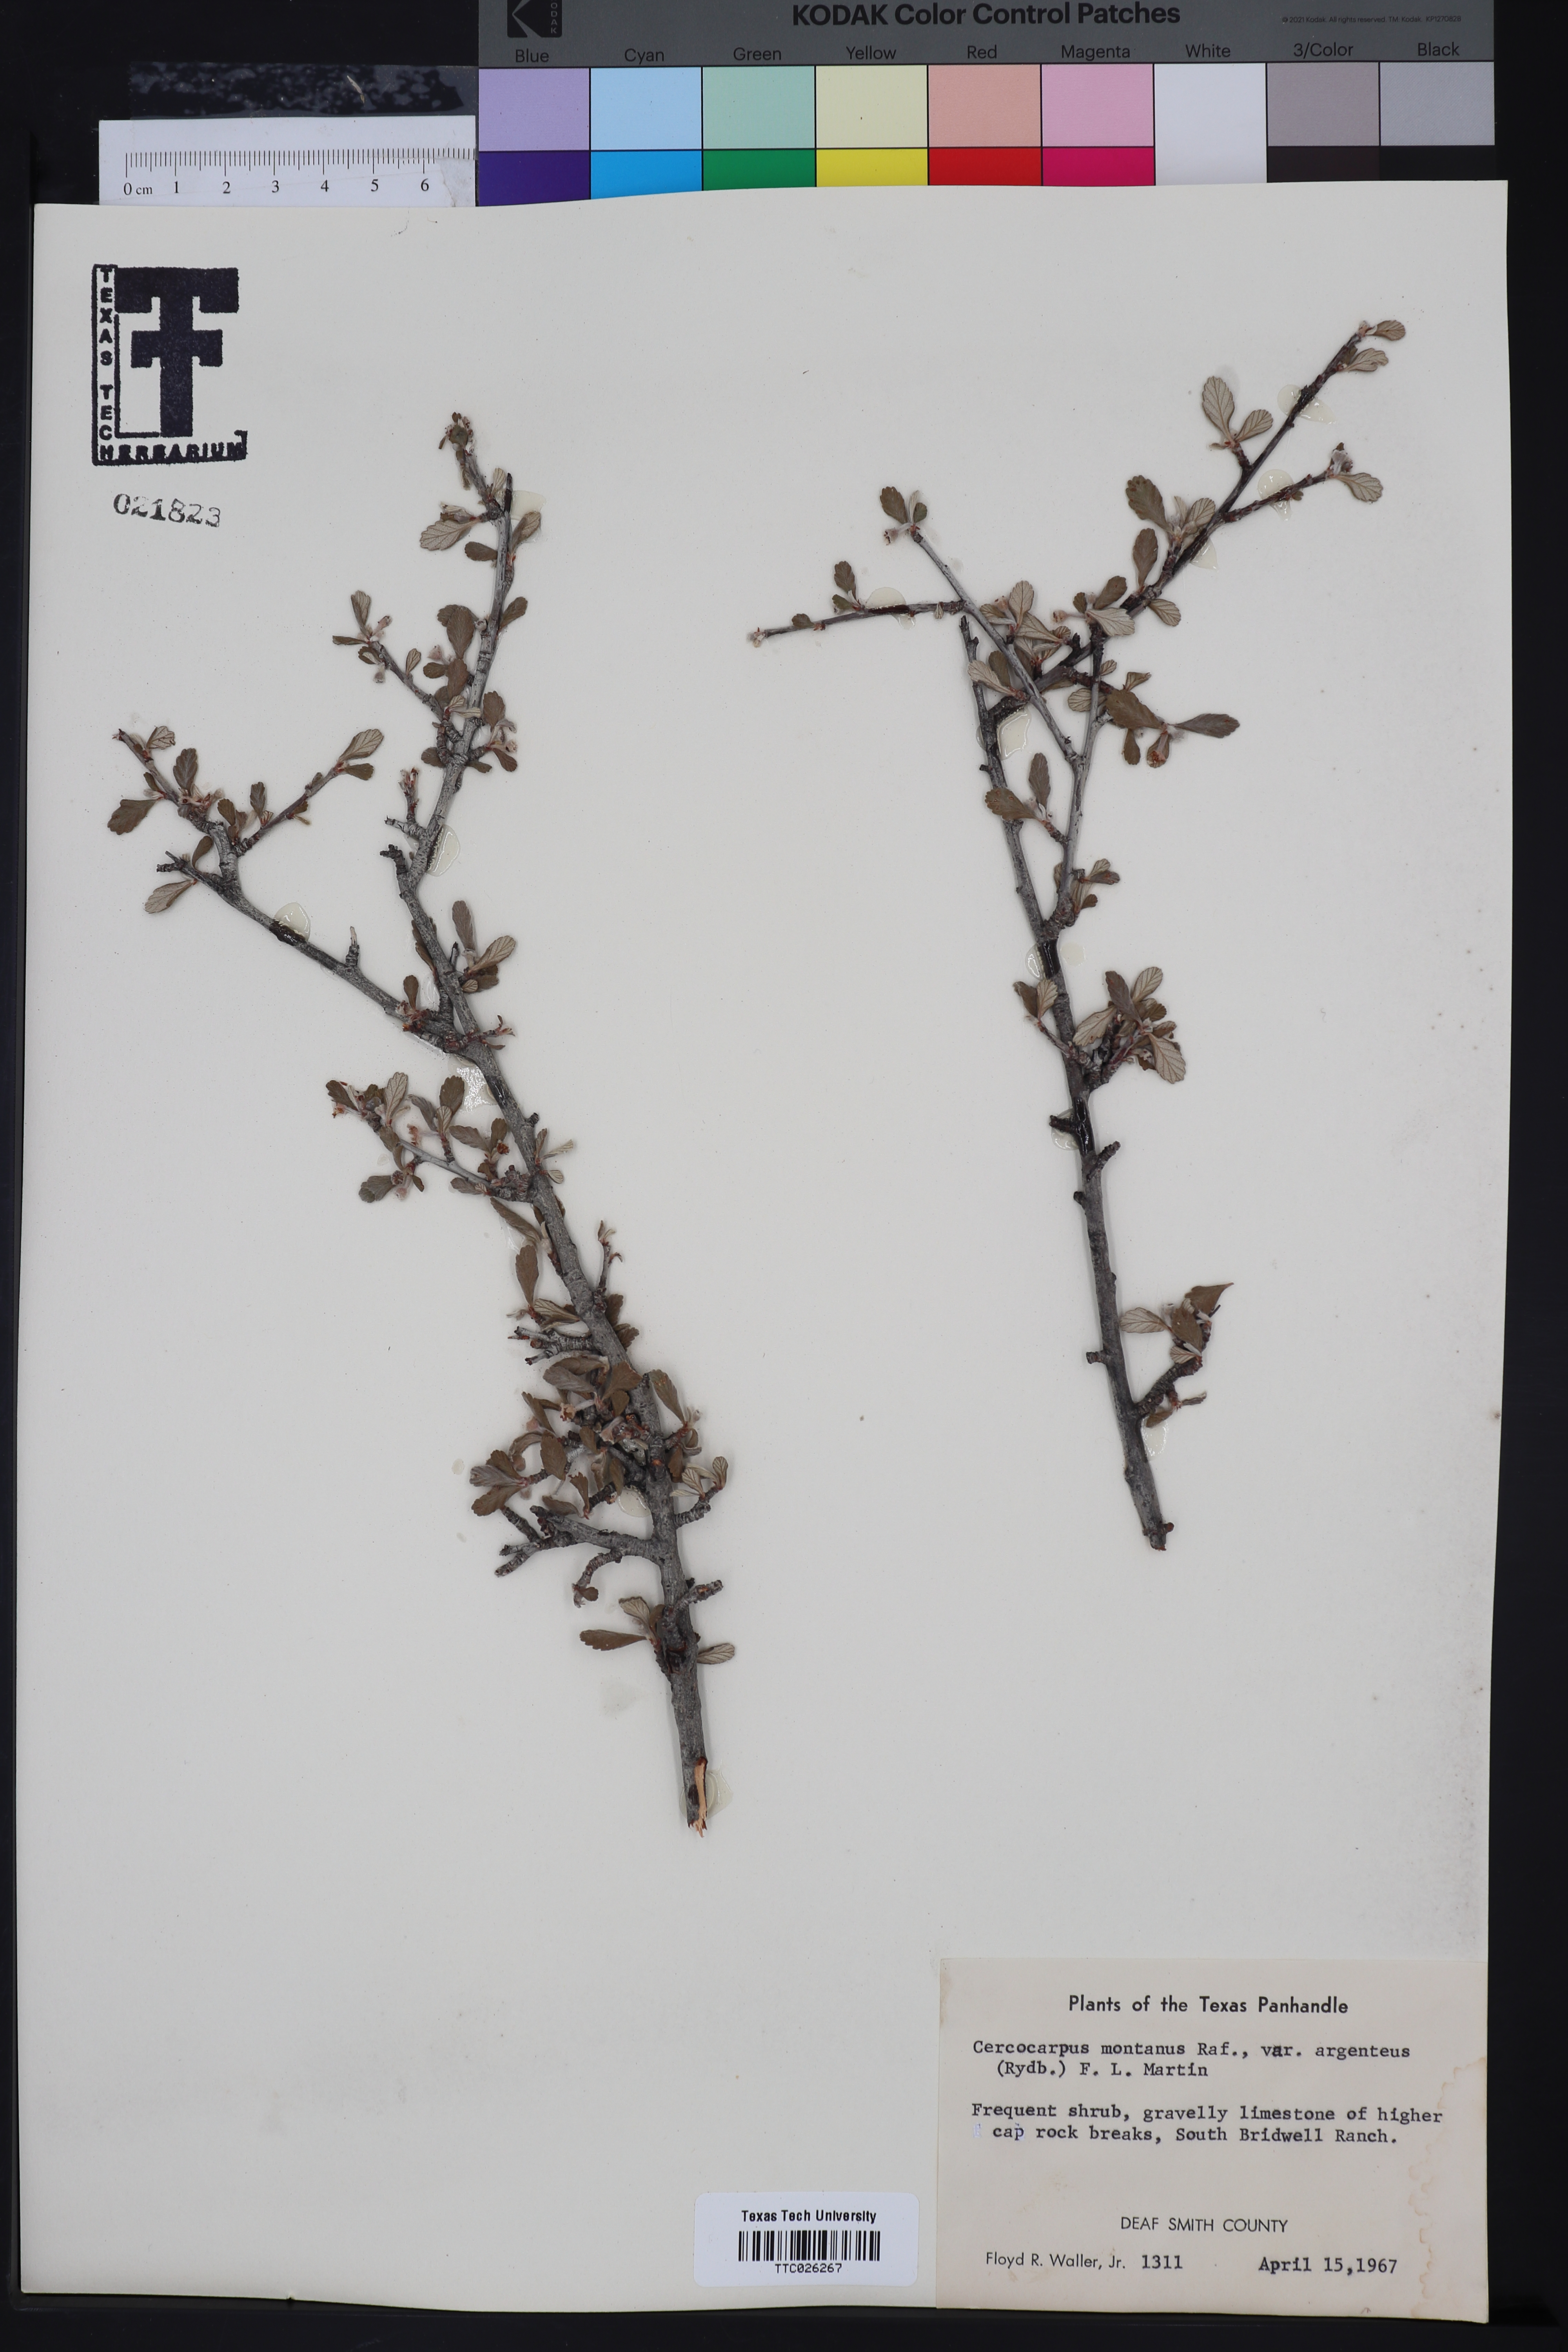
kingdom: Plantae
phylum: Tracheophyta
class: Magnoliopsida
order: Rosales
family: Rosaceae
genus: Cercocarpus
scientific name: Cercocarpus intricatus
